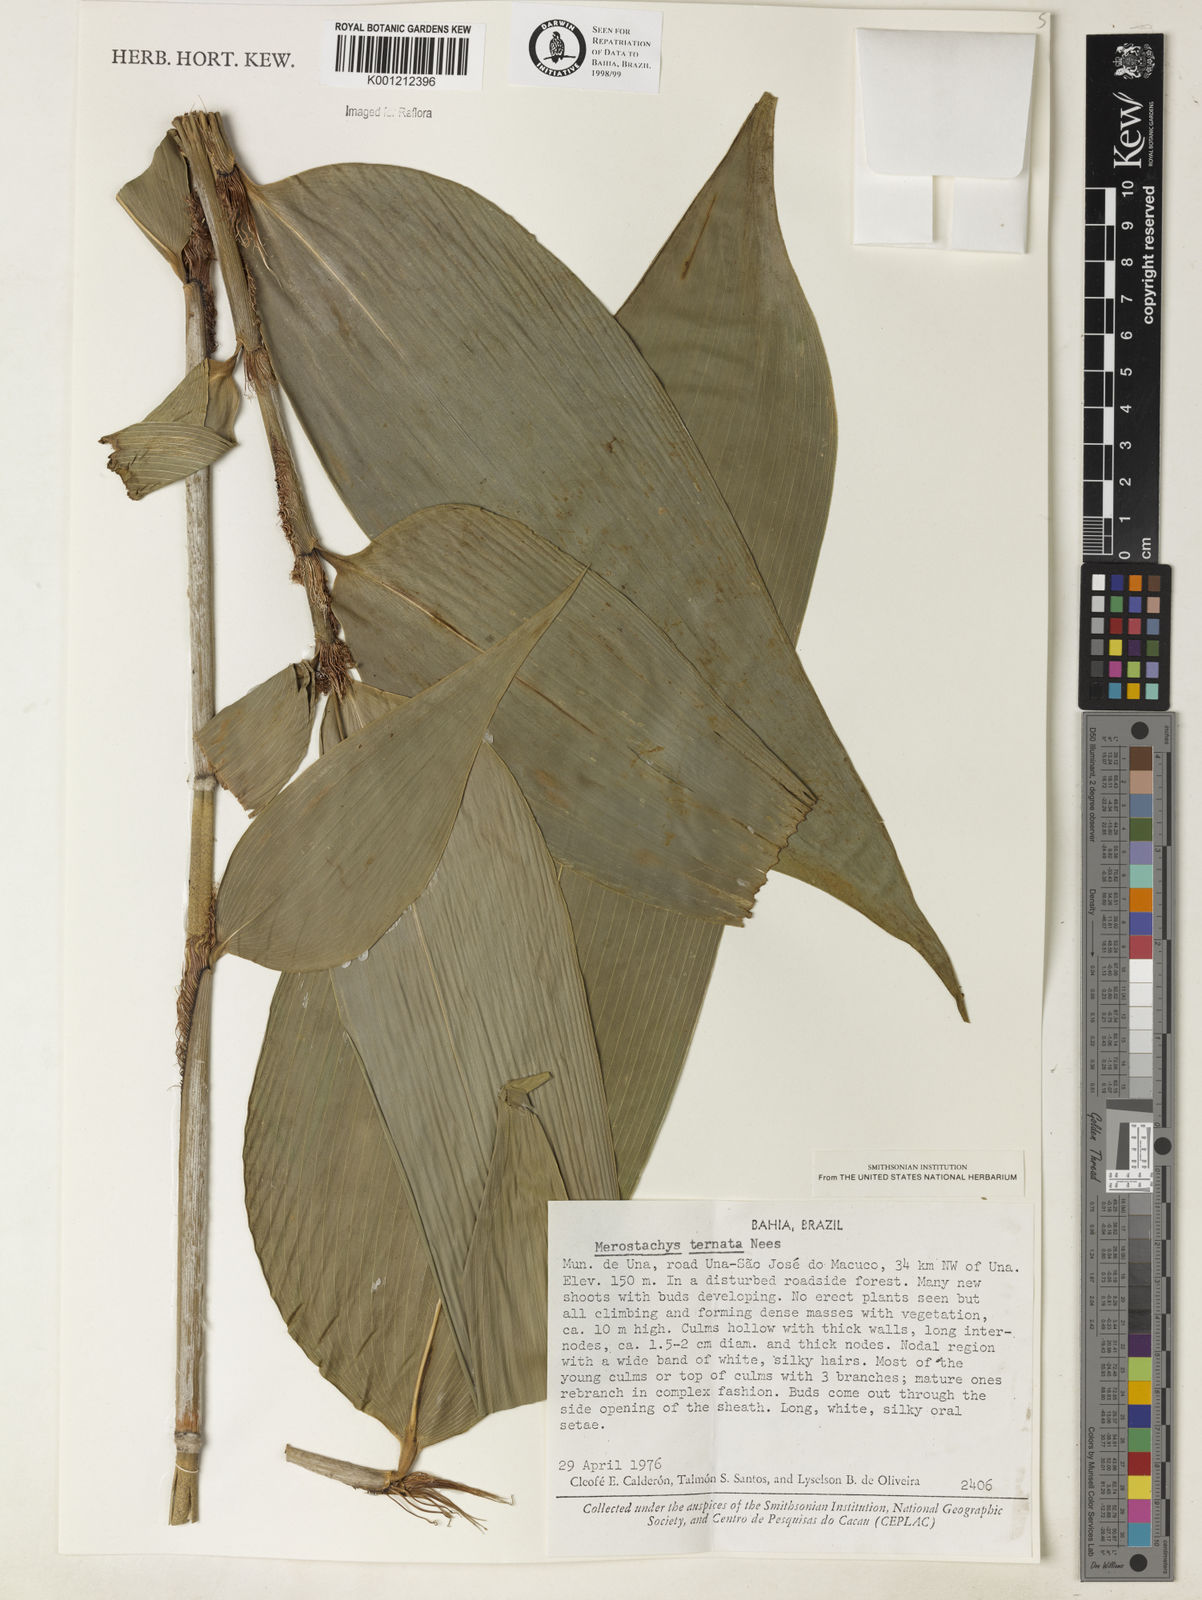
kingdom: Plantae
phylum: Tracheophyta
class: Liliopsida
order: Poales
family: Poaceae
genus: Merostachys
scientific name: Merostachys ternata
